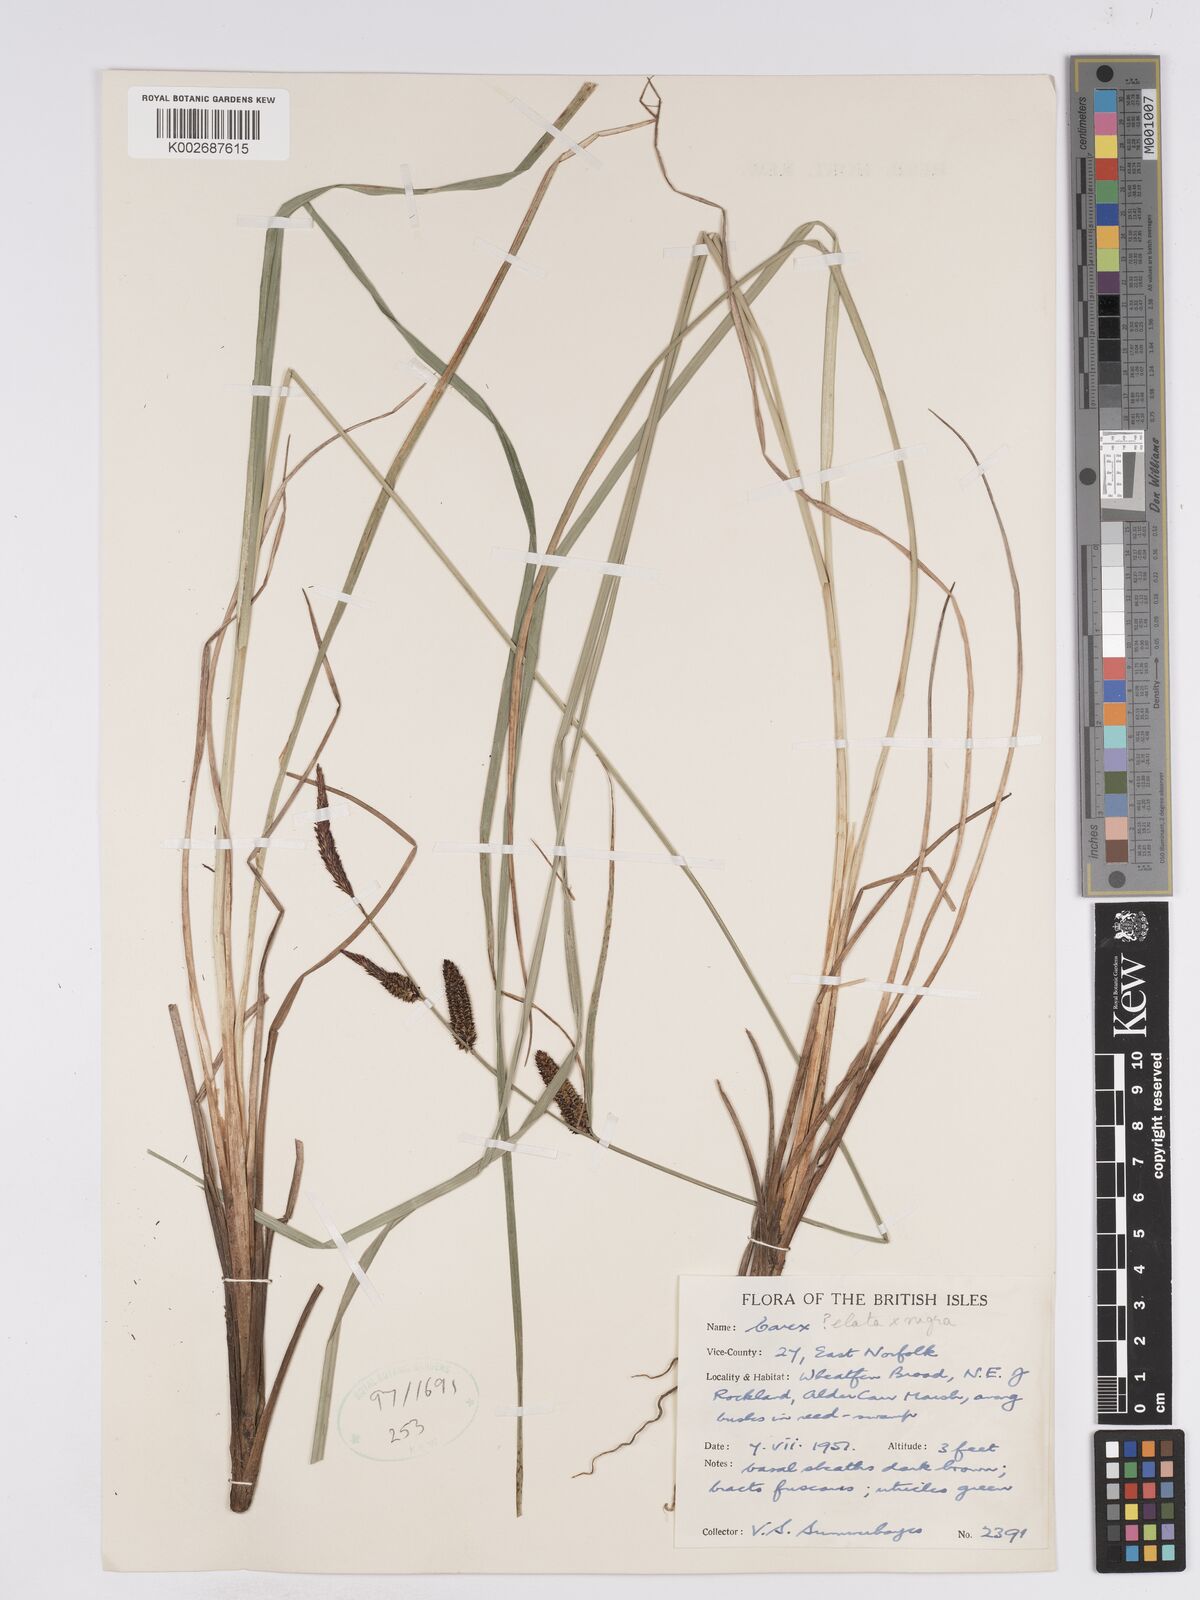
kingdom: Plantae
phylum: Tracheophyta
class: Liliopsida
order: Poales
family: Cyperaceae
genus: Carex
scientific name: Carex nigra
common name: Common sedge
